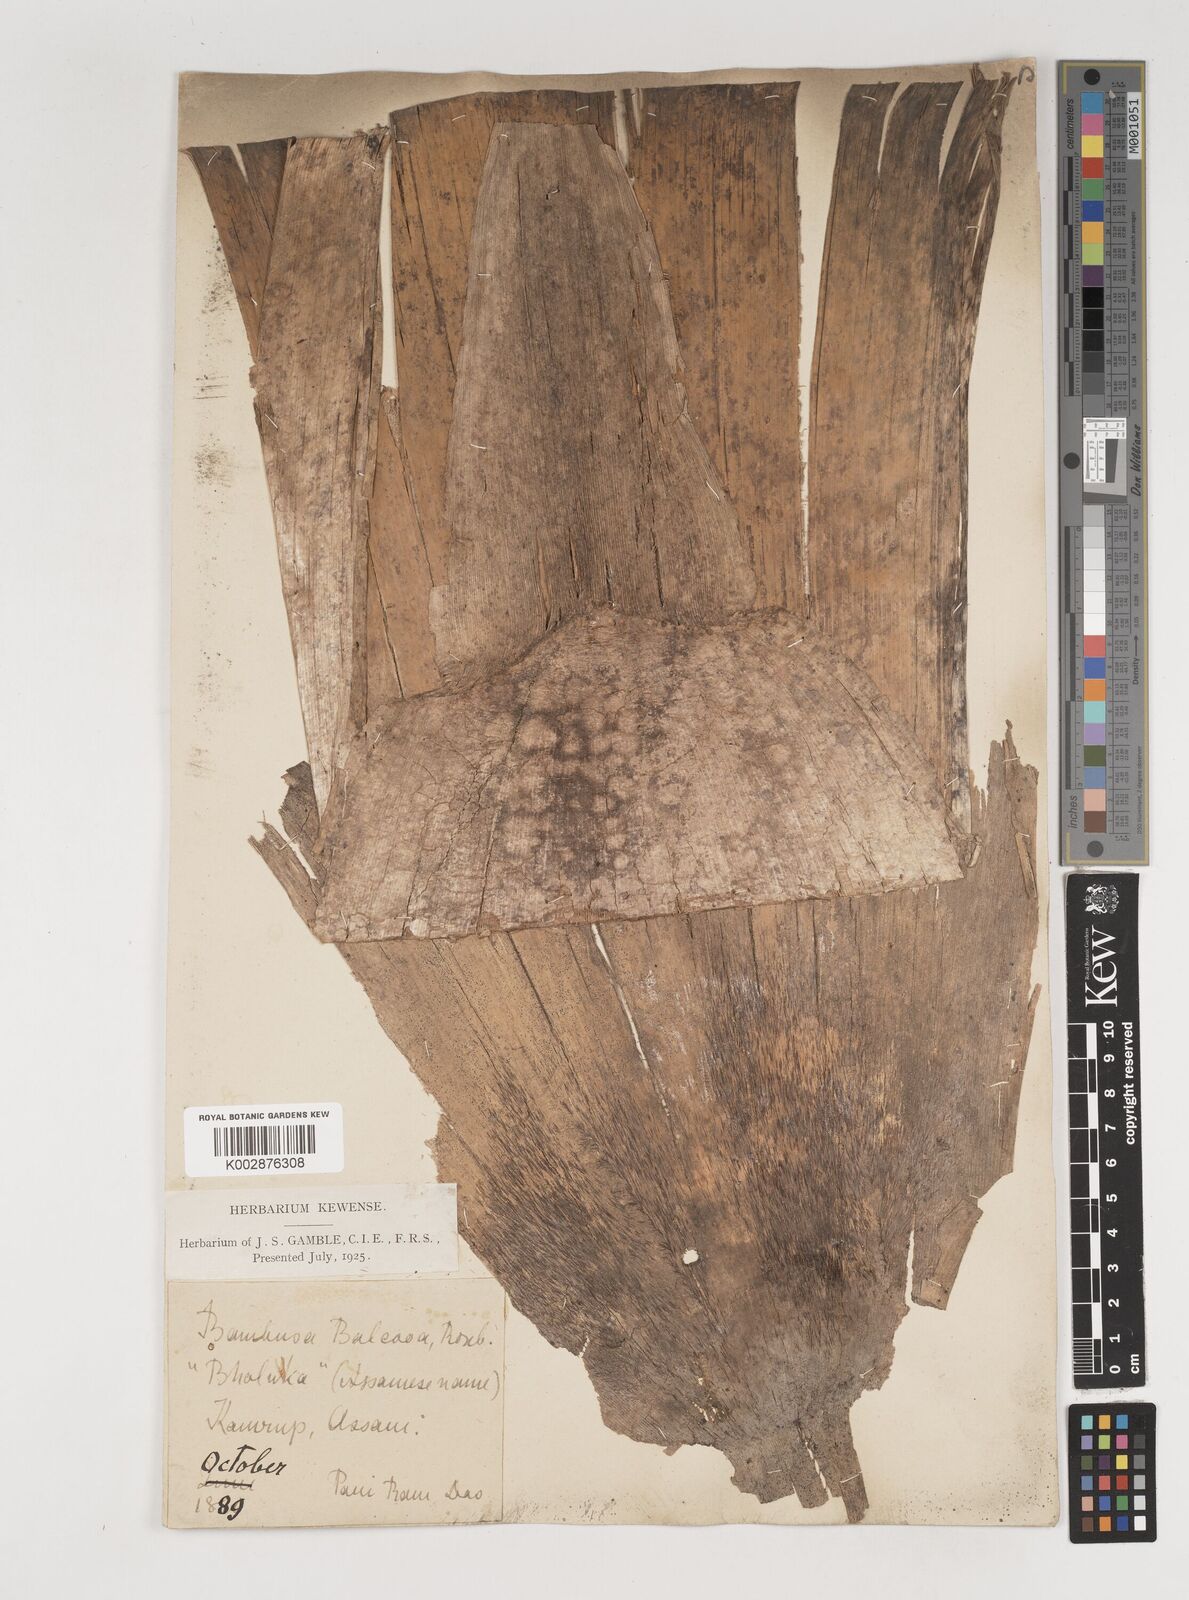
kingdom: Plantae
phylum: Tracheophyta
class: Liliopsida
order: Poales
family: Poaceae
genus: Bambusa
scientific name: Bambusa balcooa
